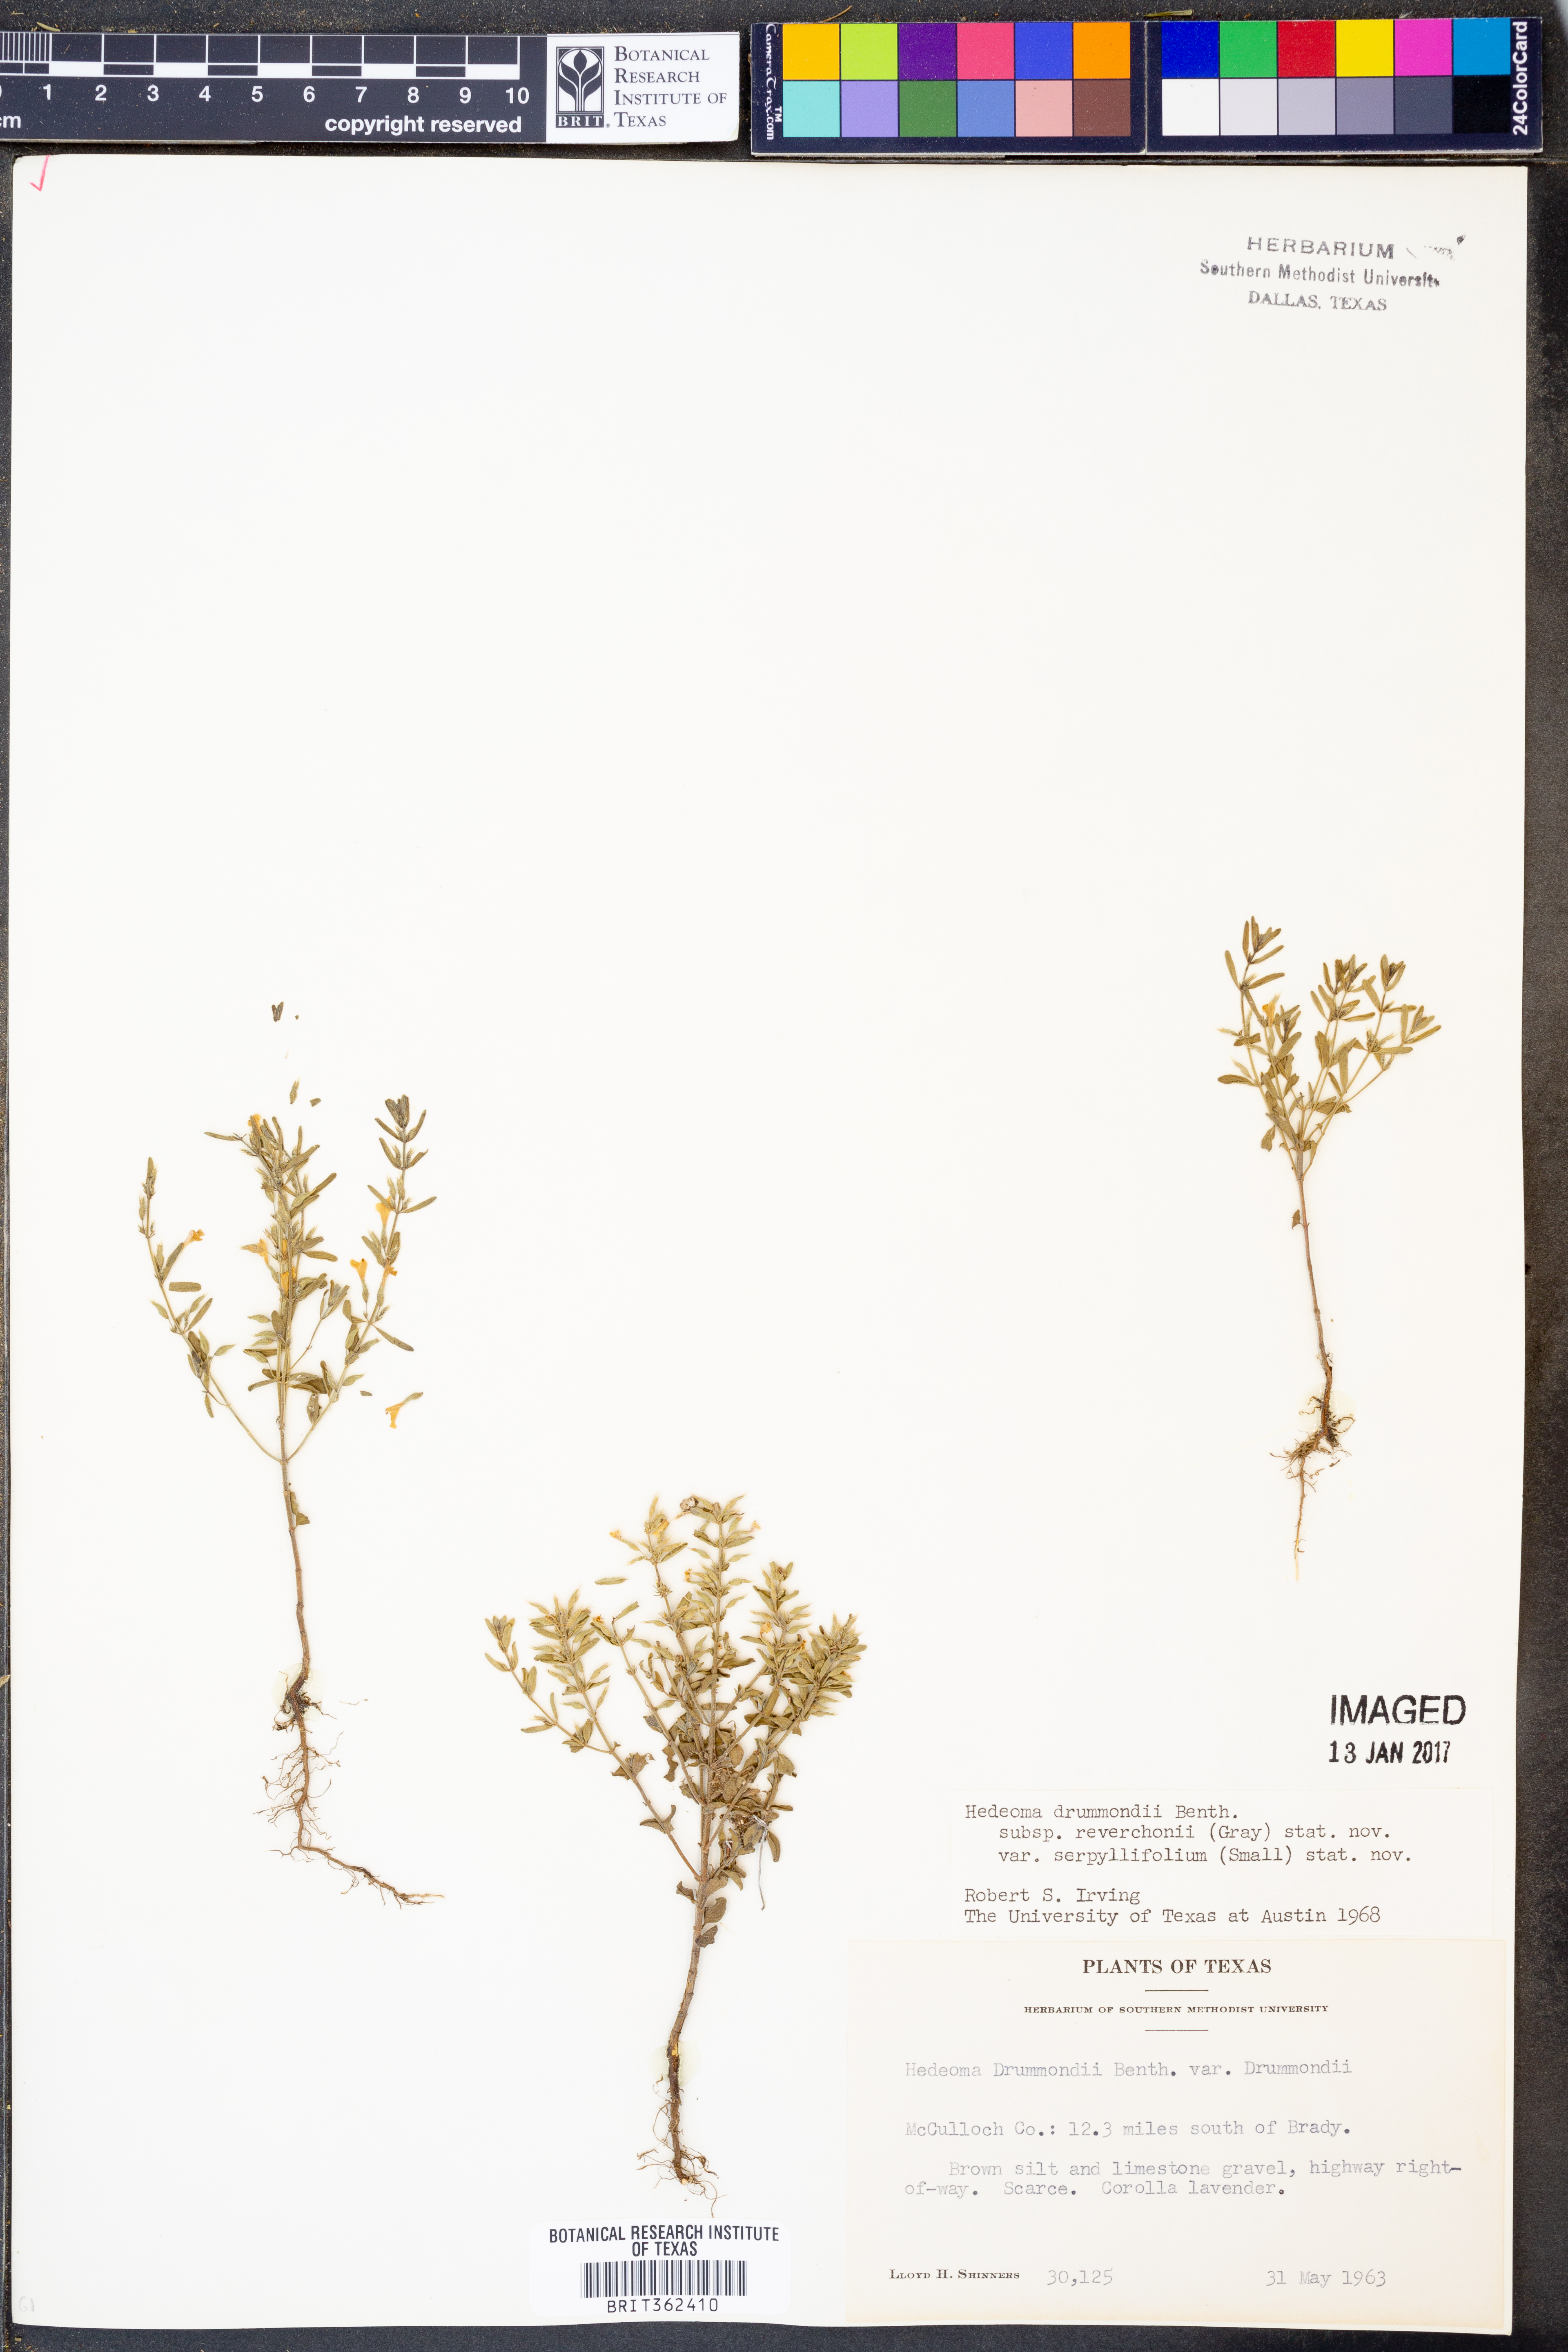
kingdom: Plantae
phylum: Tracheophyta
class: Magnoliopsida
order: Lamiales
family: Lamiaceae
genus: Hedeoma
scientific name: Hedeoma reverchonii
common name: Reverchon's false penny-royal
